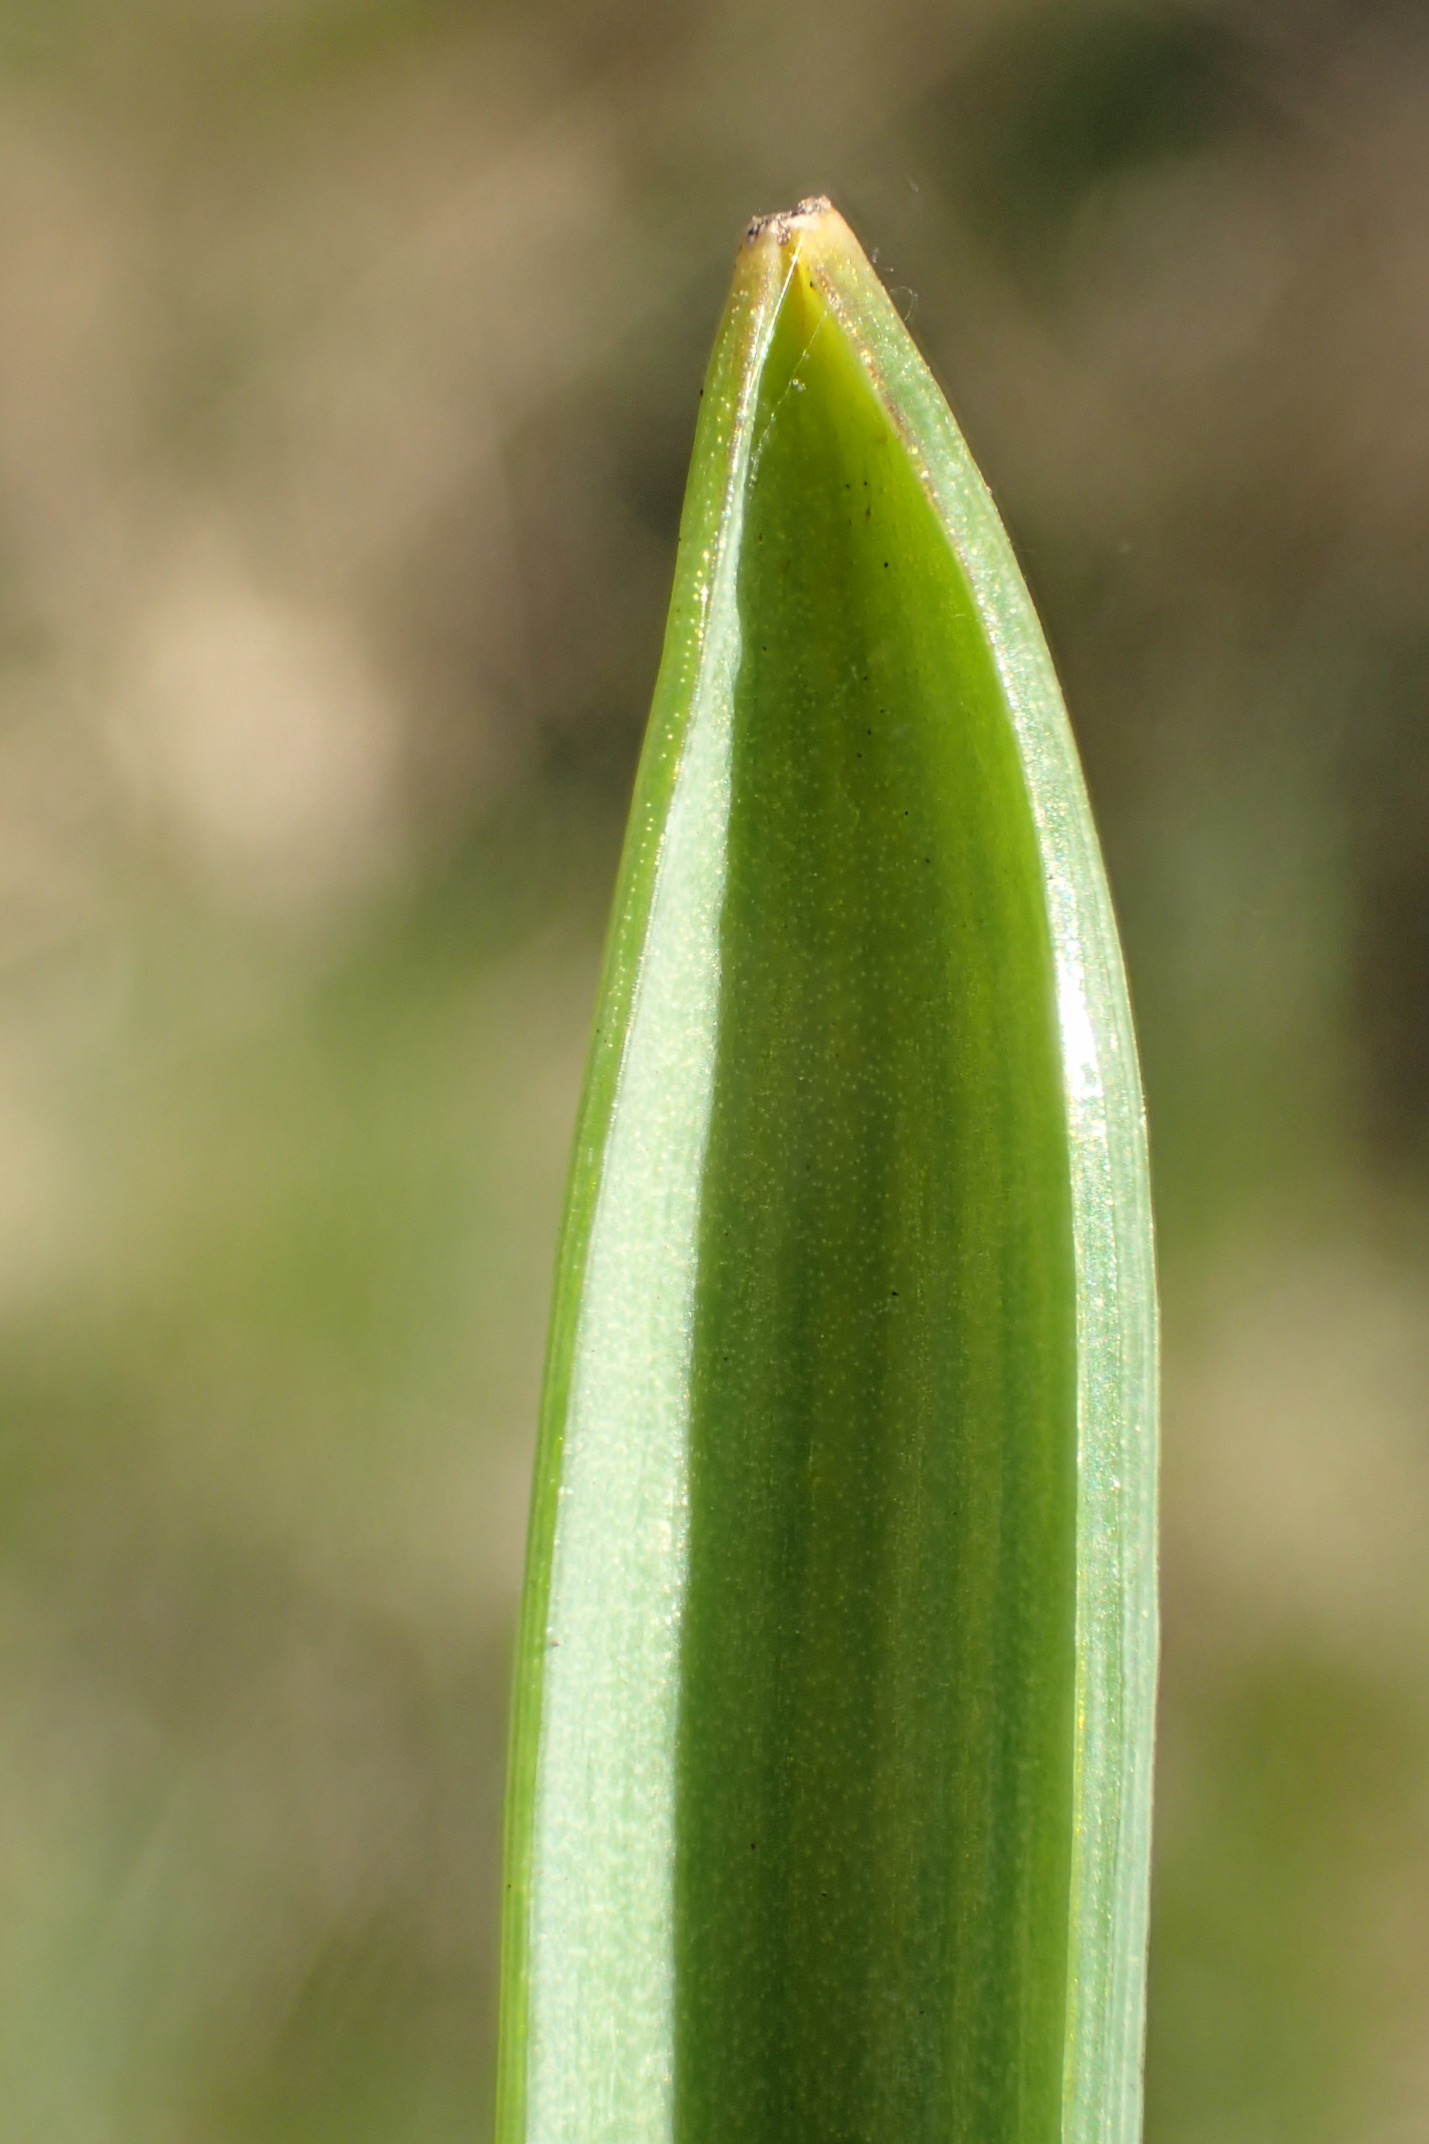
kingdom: Plantae
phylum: Tracheophyta
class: Liliopsida
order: Asparagales
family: Asparagaceae
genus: Muscari
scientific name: Muscari armeniacum
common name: Armensk perlehyacint
